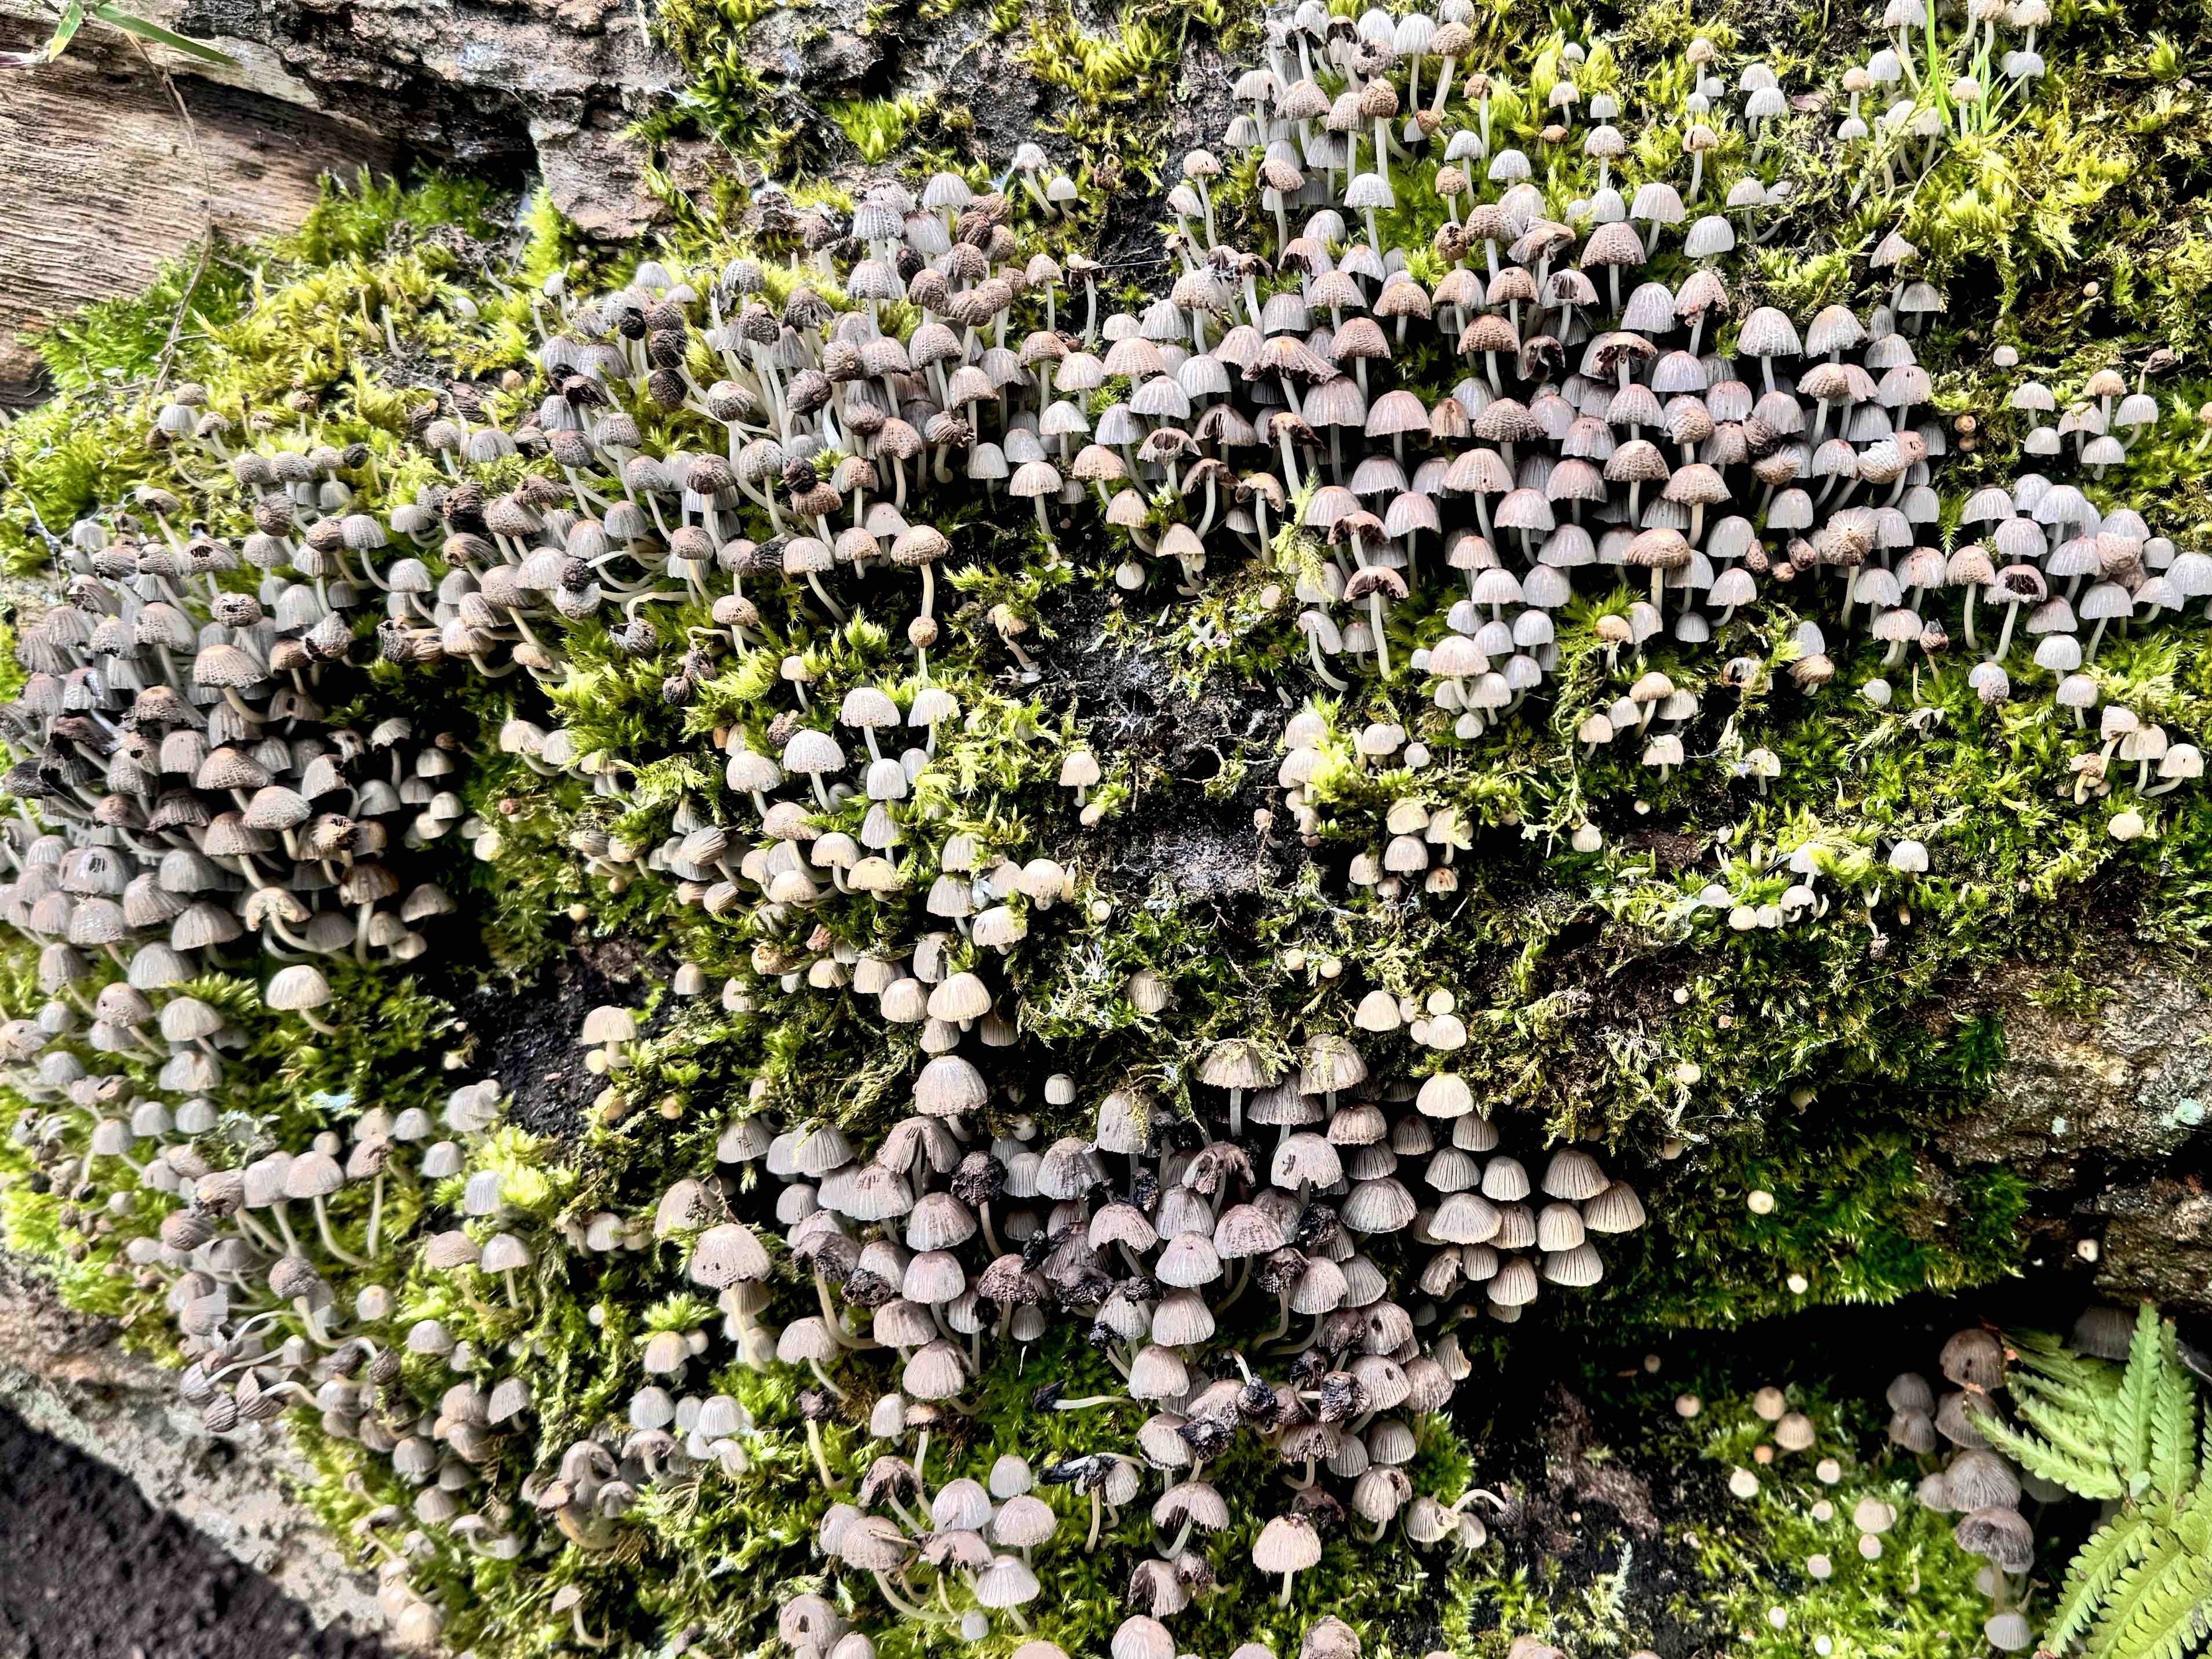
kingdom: Fungi
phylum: Basidiomycota
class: Agaricomycetes
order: Agaricales
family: Psathyrellaceae
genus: Coprinellus
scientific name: Coprinellus disseminatus
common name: bredsået blækhat
